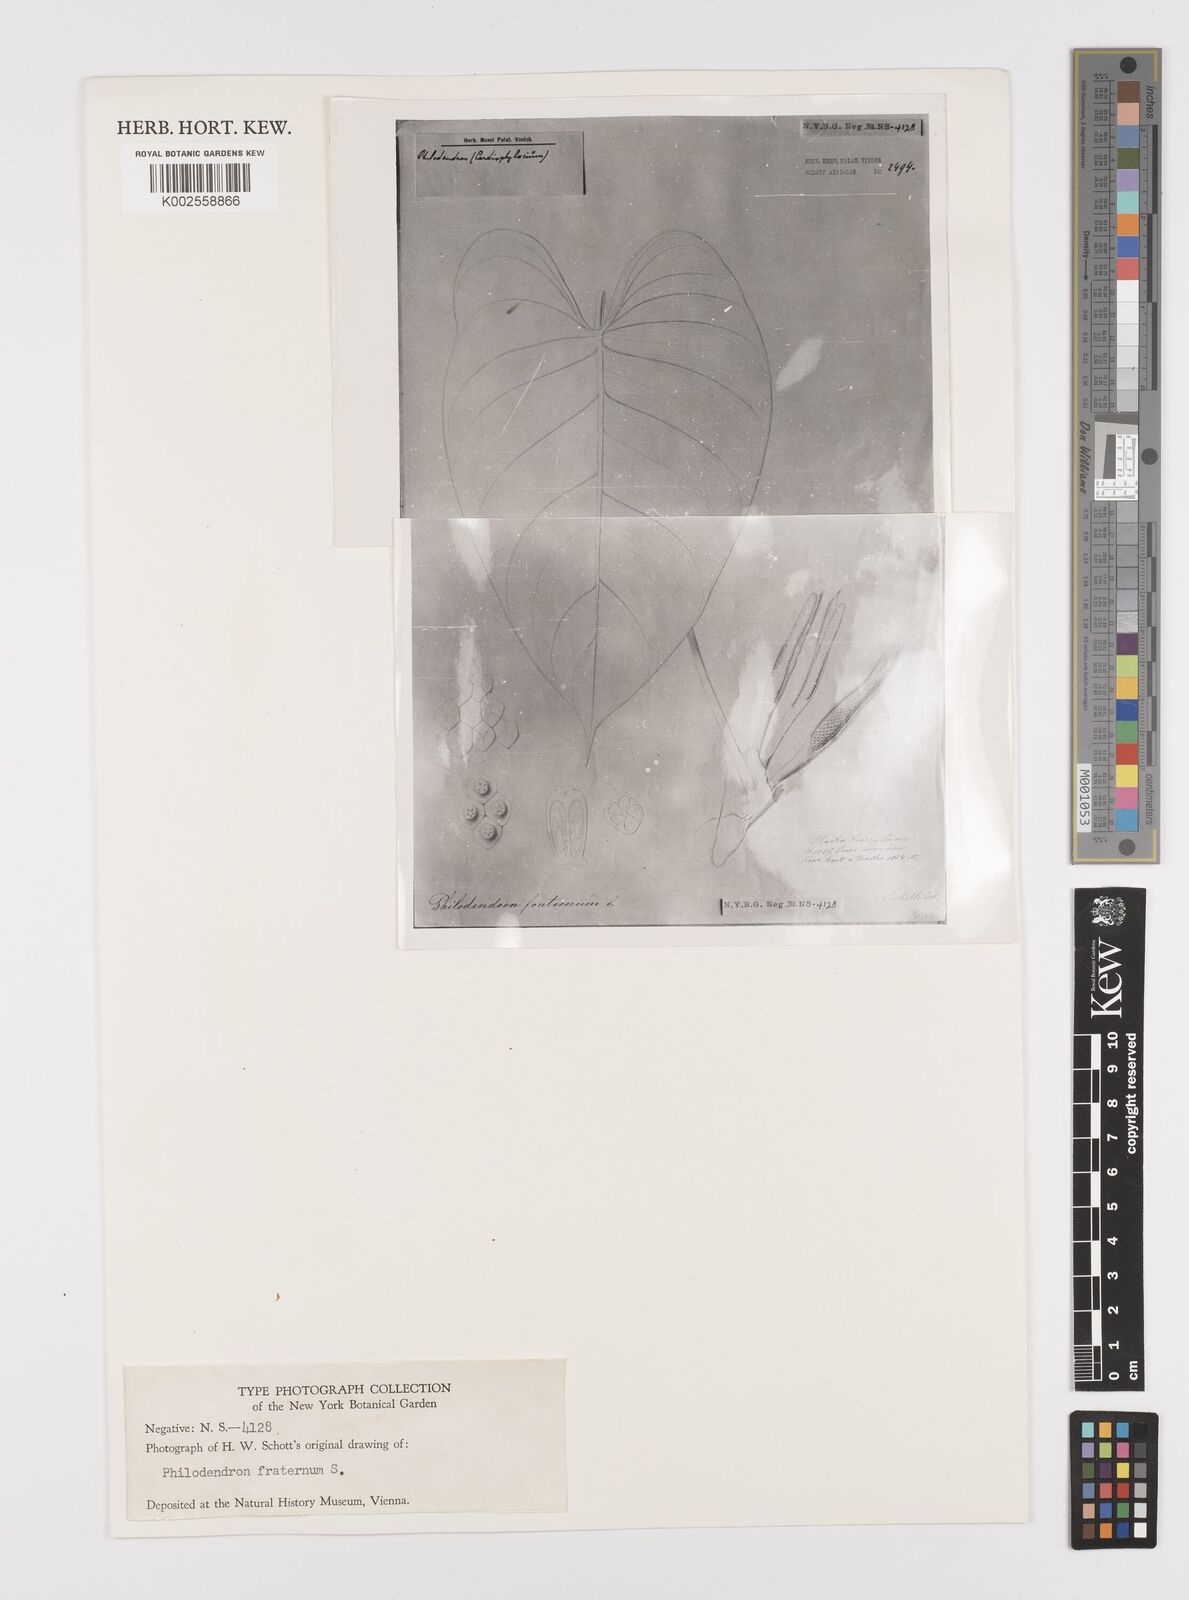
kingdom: Plantae
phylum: Tracheophyta
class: Liliopsida
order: Alismatales
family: Araceae
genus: Philodendron
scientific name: Philodendron fraternum
